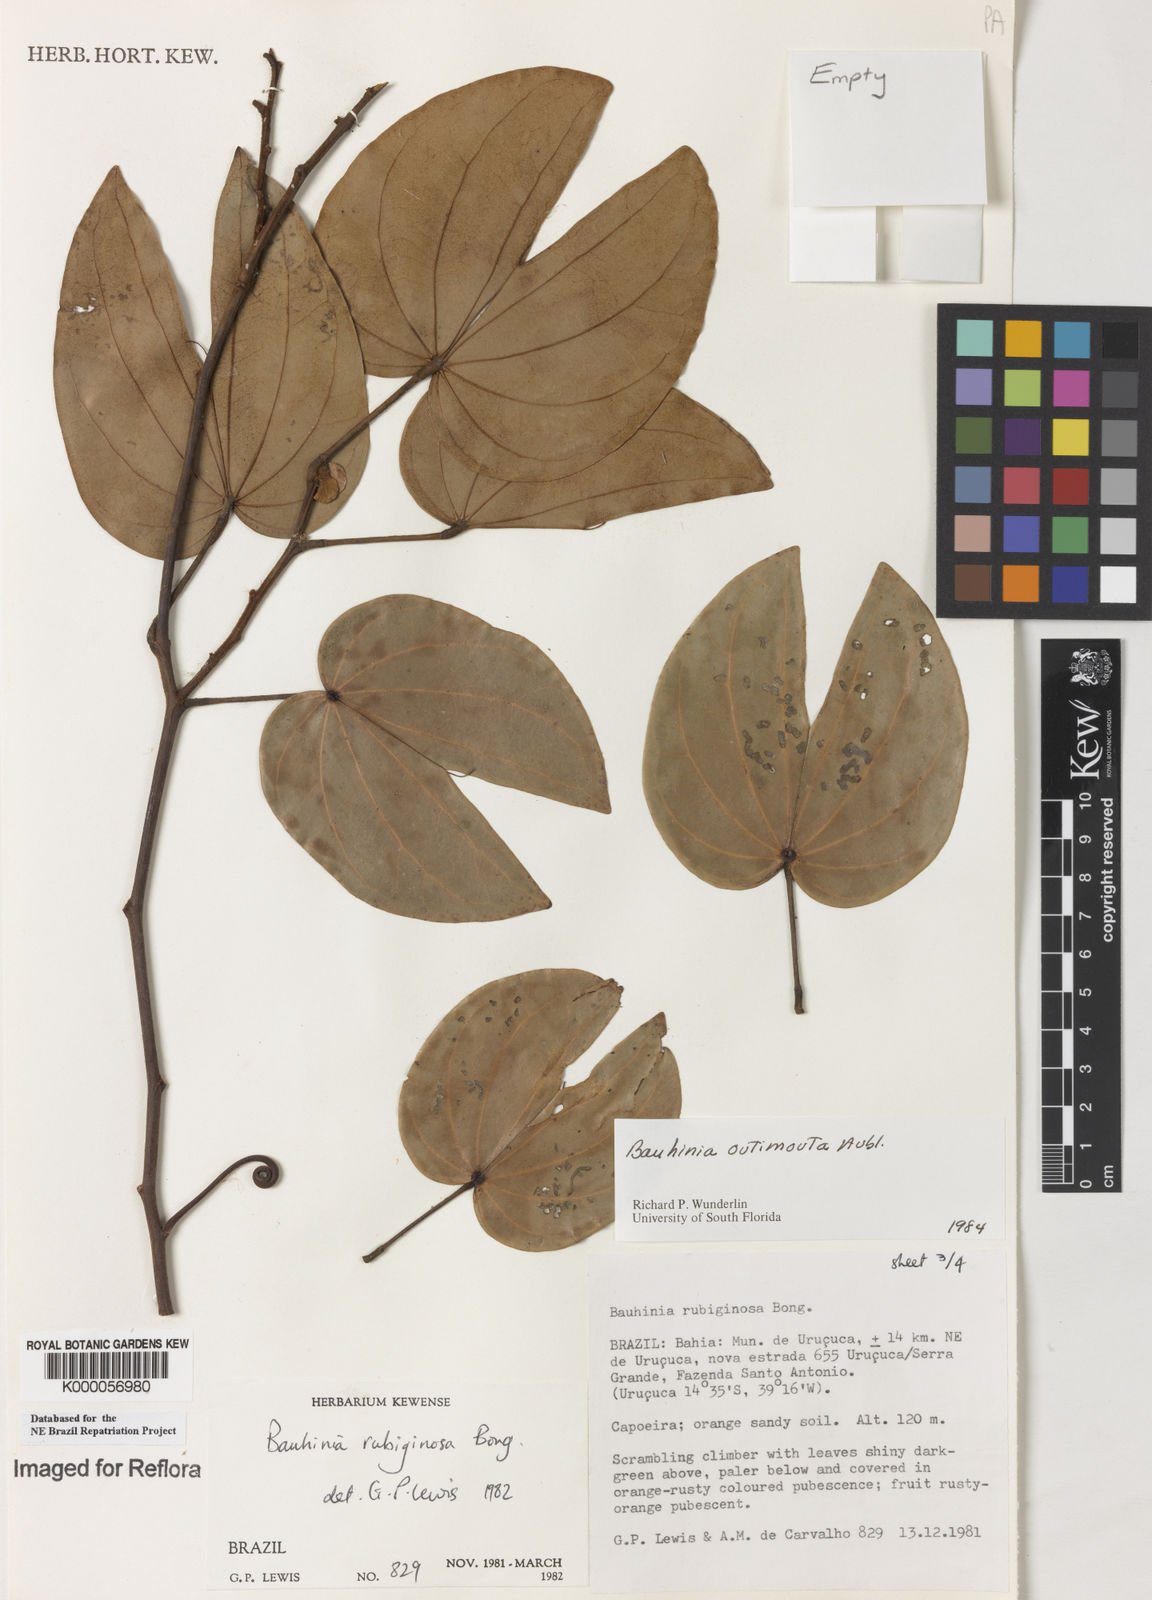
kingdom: Plantae
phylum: Tracheophyta
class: Magnoliopsida
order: Fabales
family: Fabaceae
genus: Schnella
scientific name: Schnella outimouta
